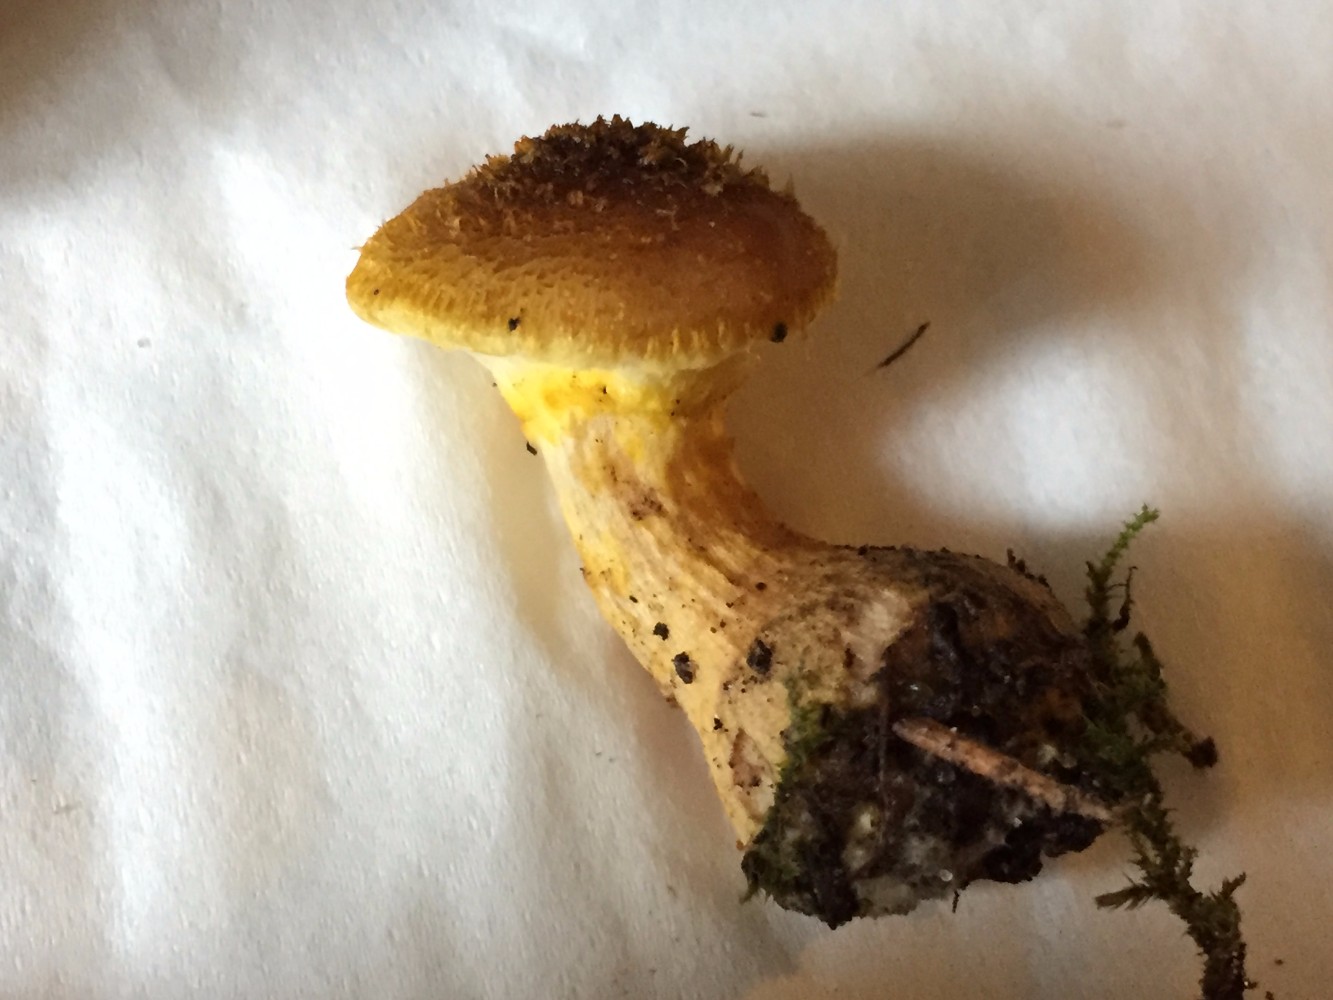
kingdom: Fungi
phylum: Basidiomycota
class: Agaricomycetes
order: Agaricales
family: Physalacriaceae
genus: Armillaria
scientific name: Armillaria lutea
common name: køllestokket honningsvamp
